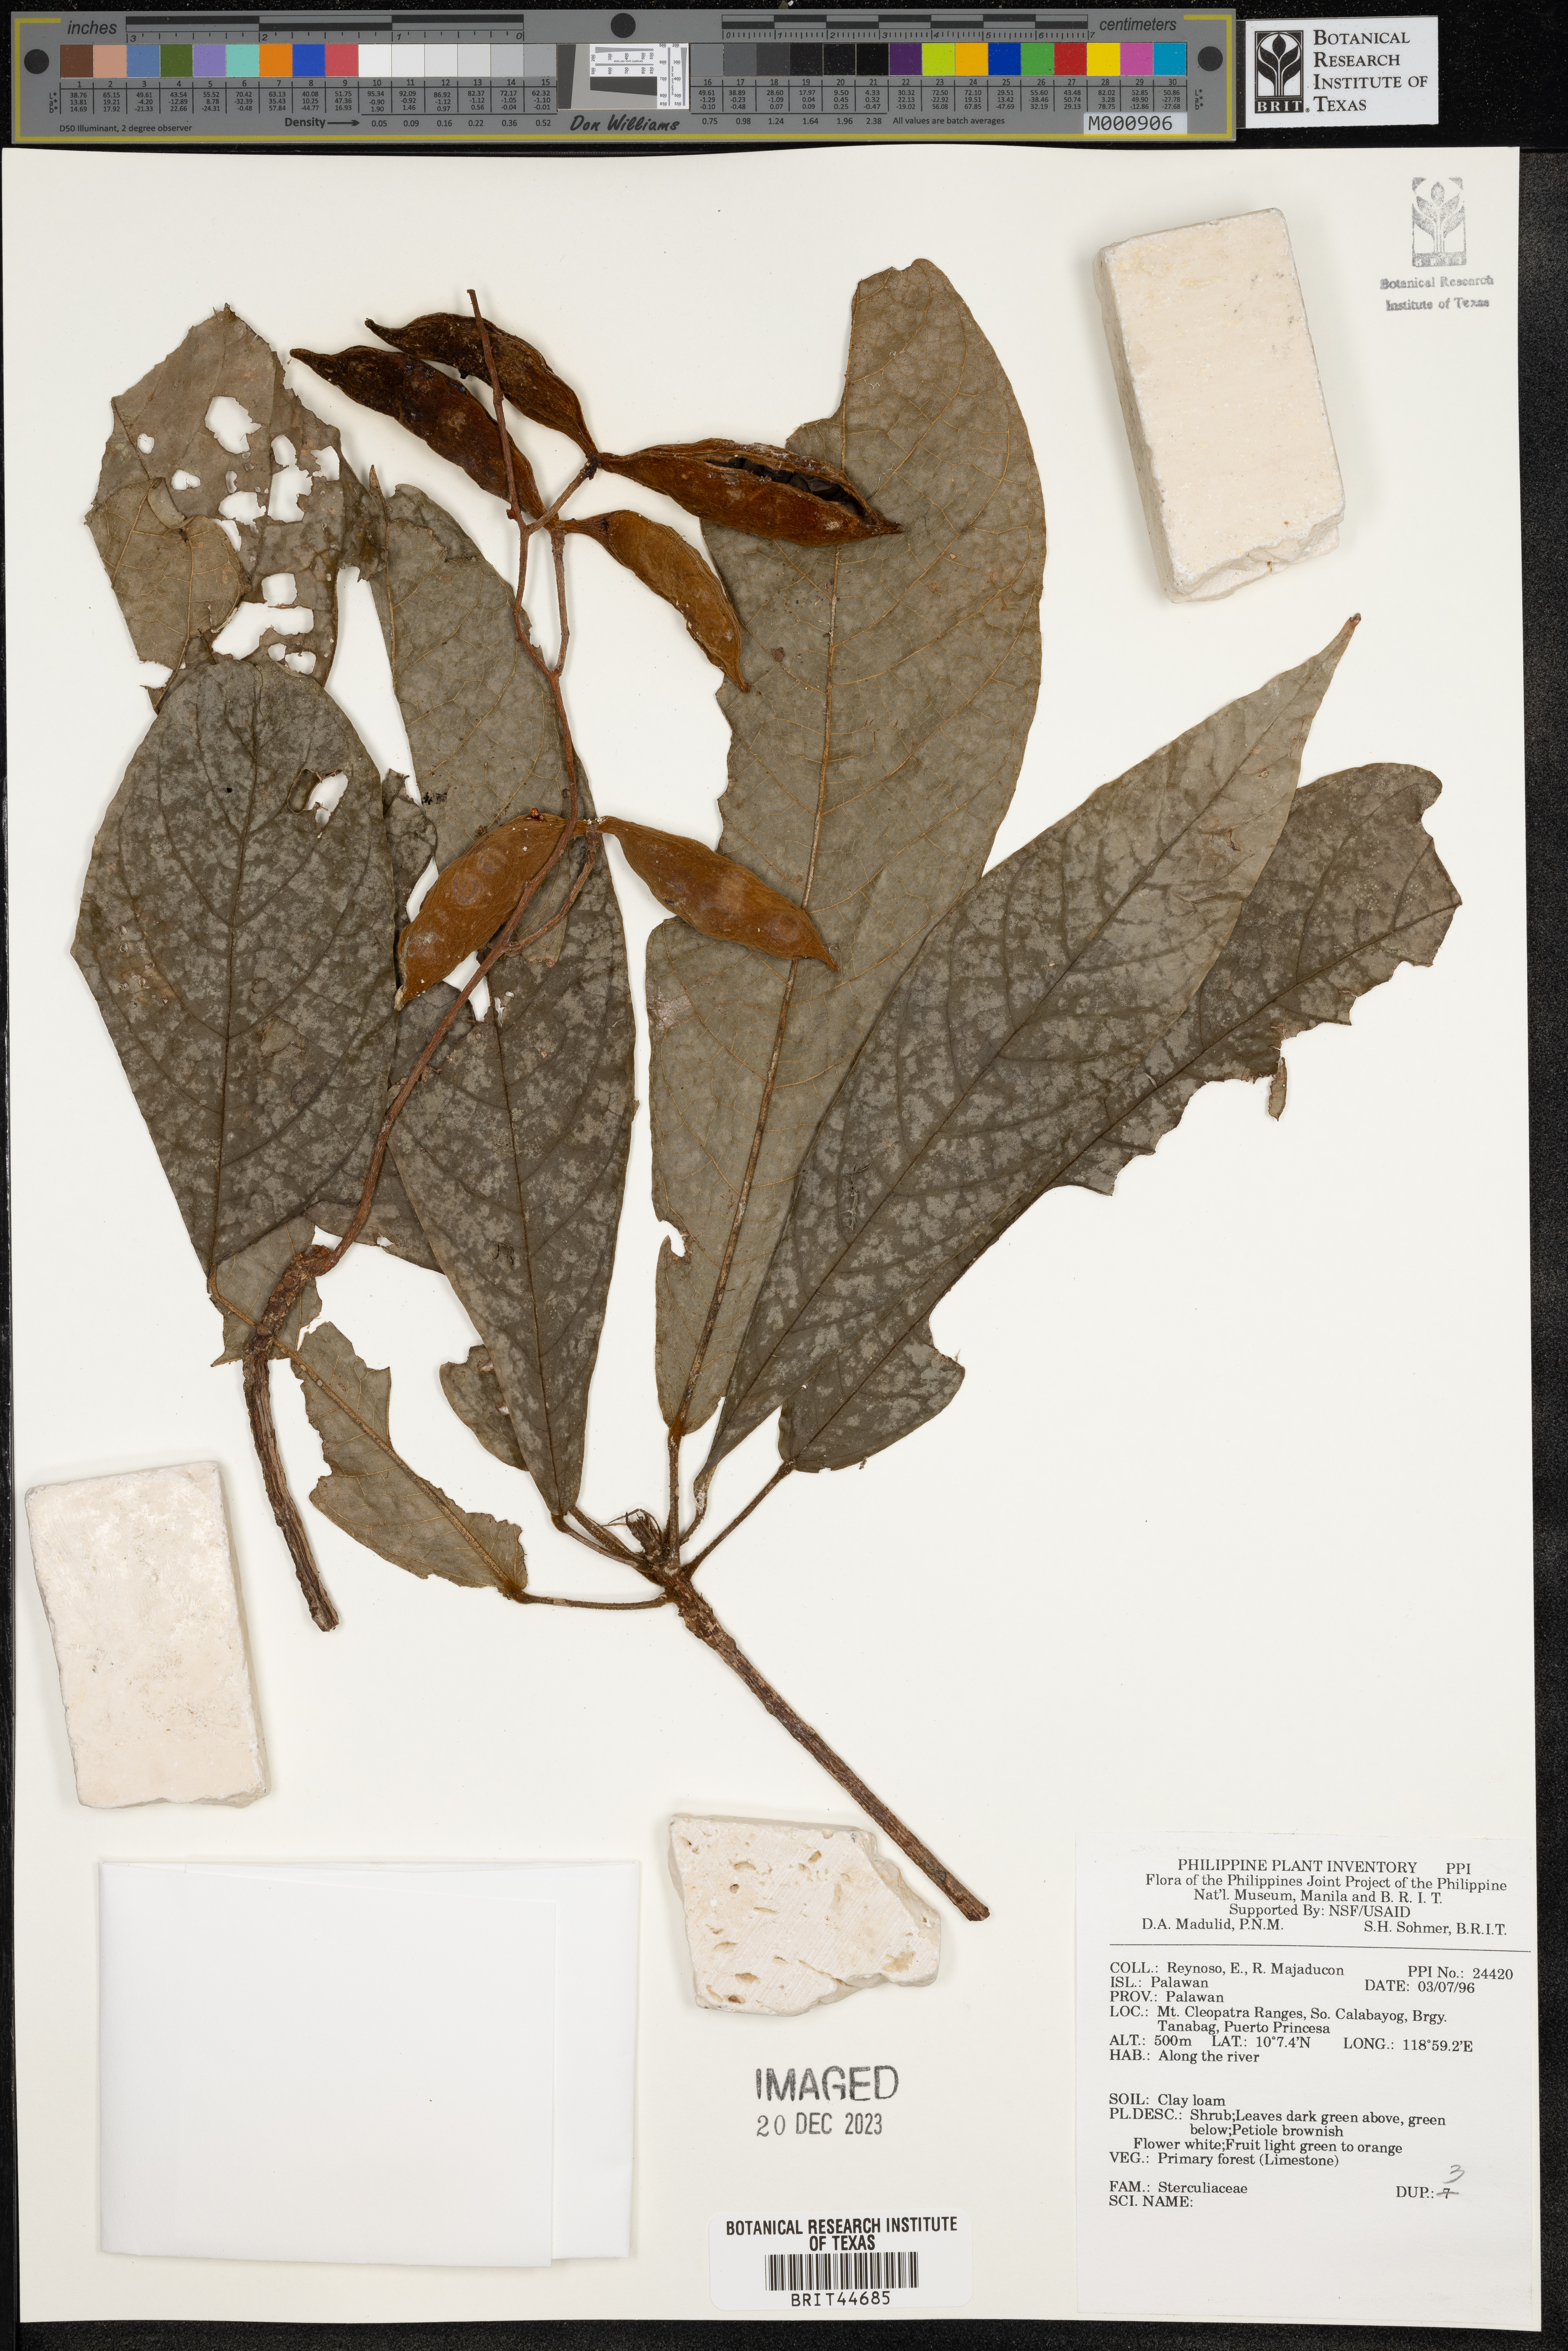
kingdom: Plantae
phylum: Tracheophyta
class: Magnoliopsida
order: Malvales
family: Sterculiaceae
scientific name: Sterculiaceae
